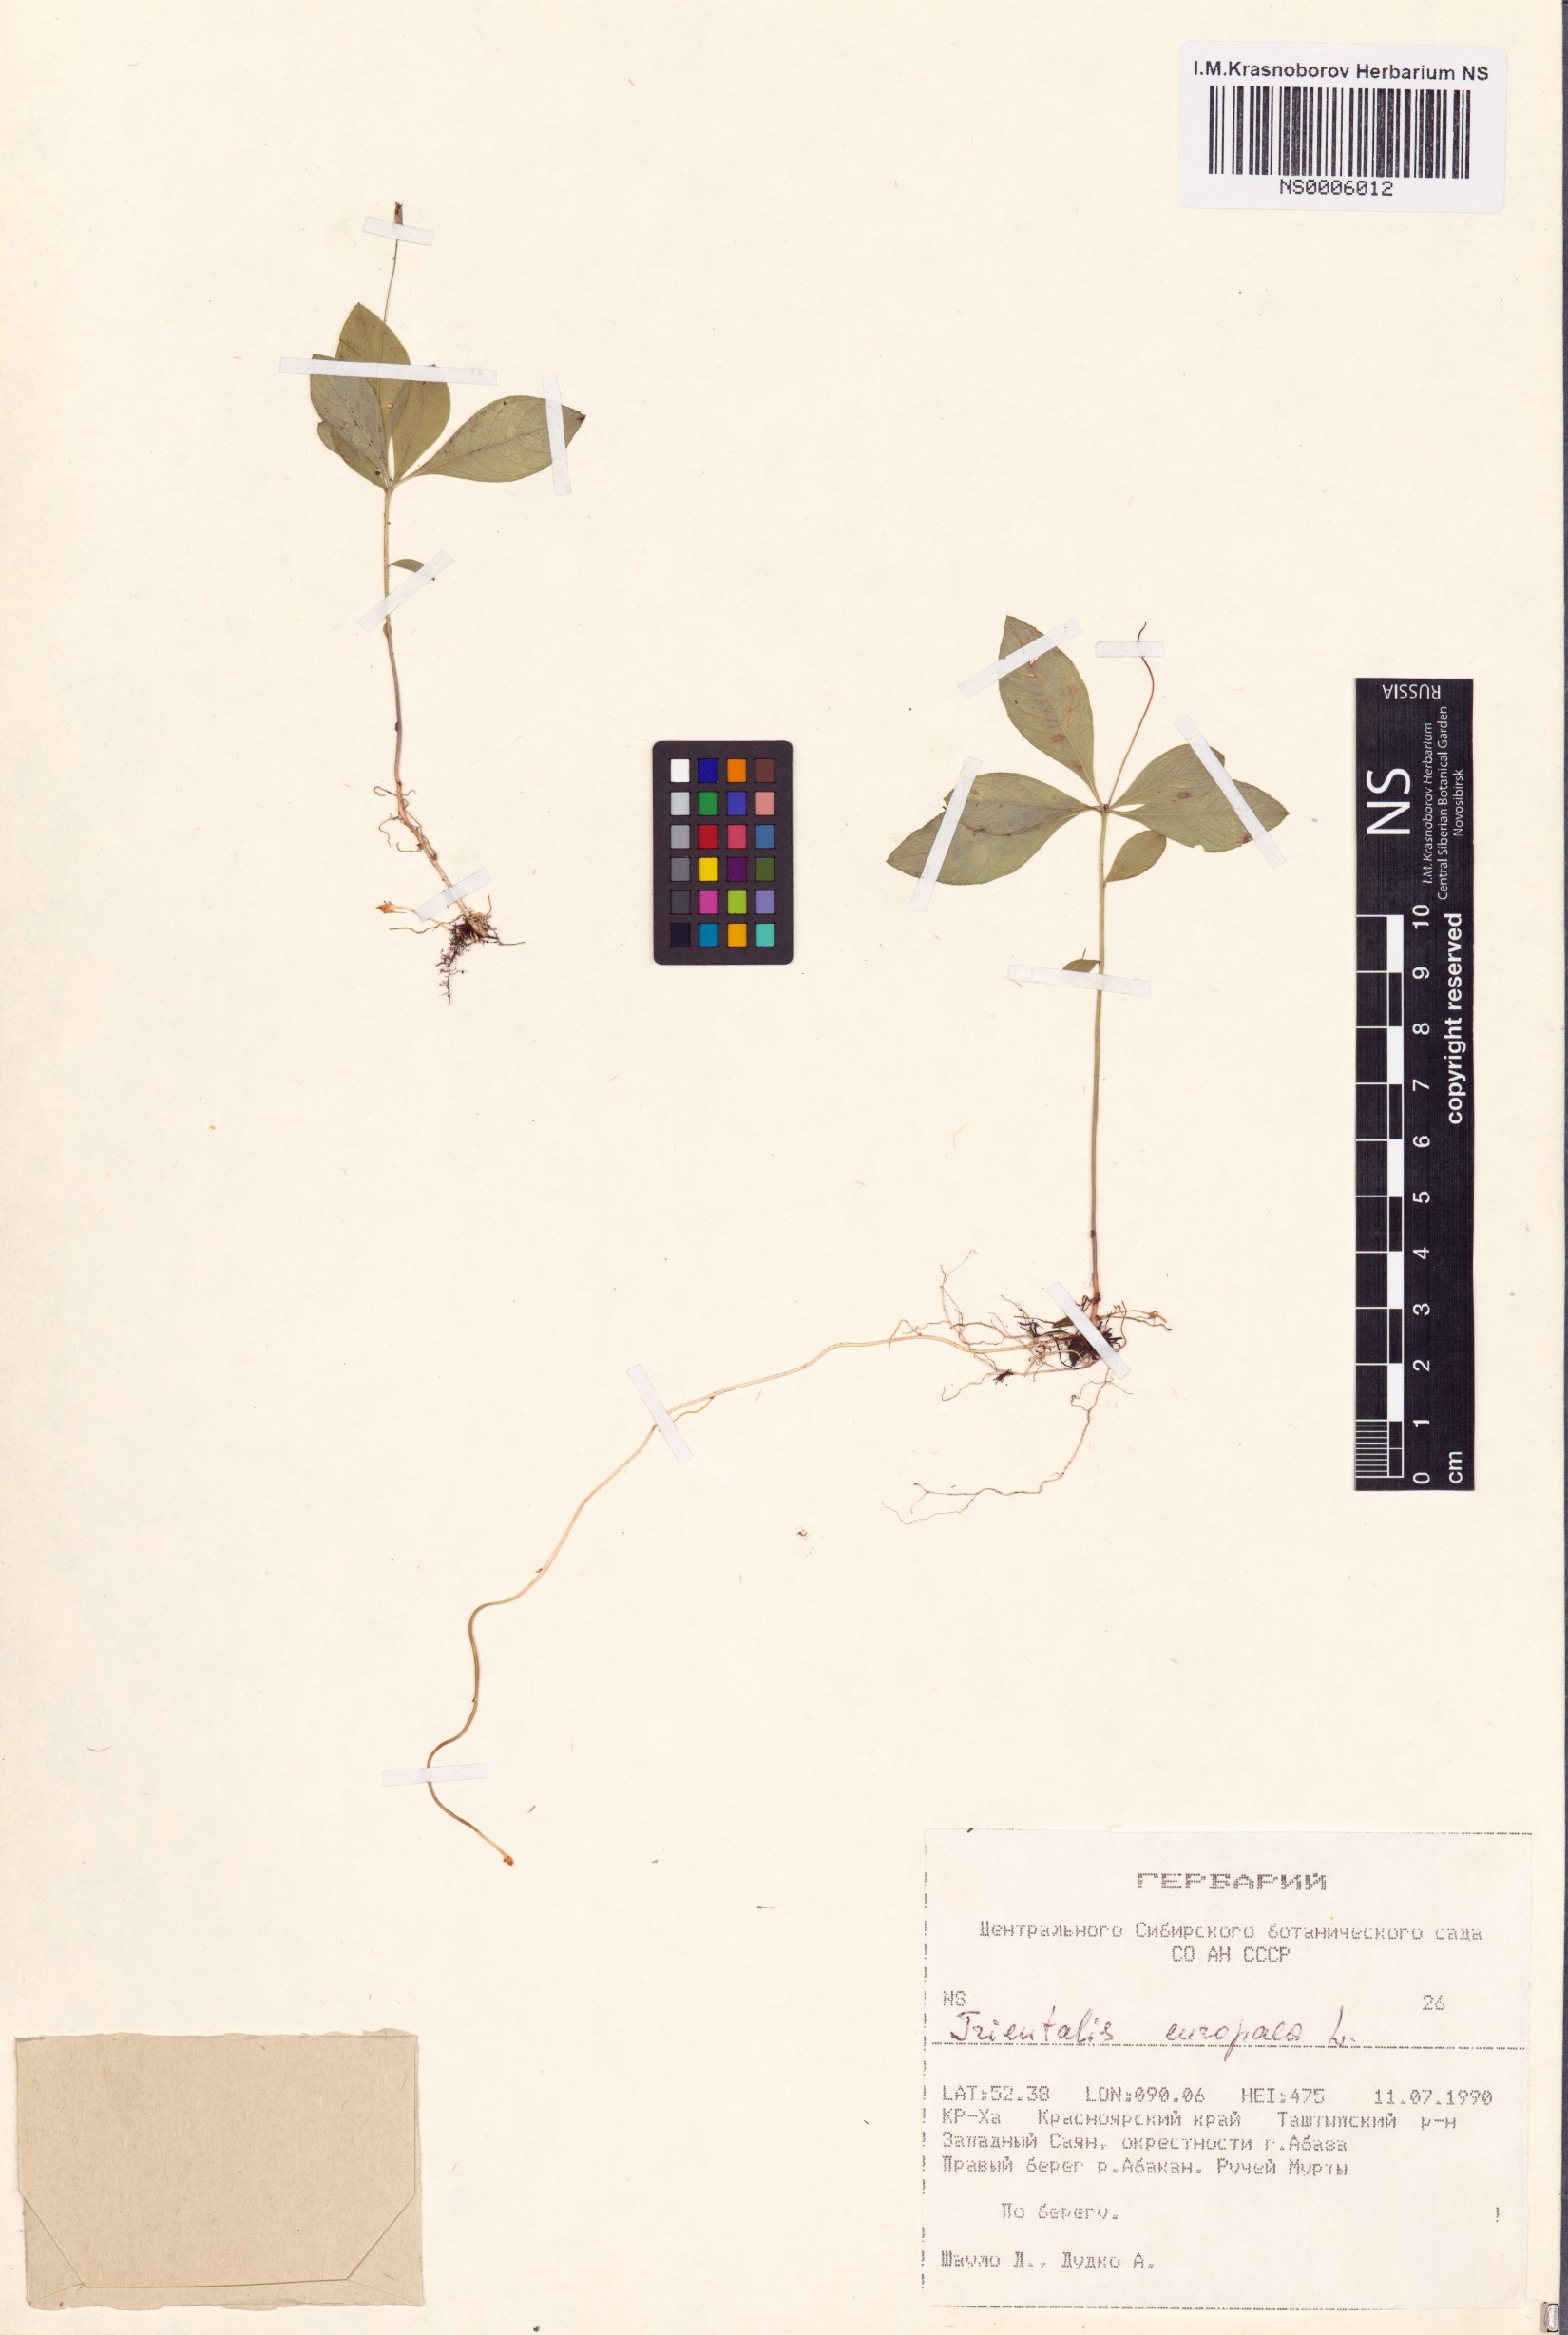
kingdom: Plantae
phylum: Tracheophyta
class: Magnoliopsida
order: Ericales
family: Primulaceae
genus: Lysimachia
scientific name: Lysimachia europaea
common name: Arctic starflower
